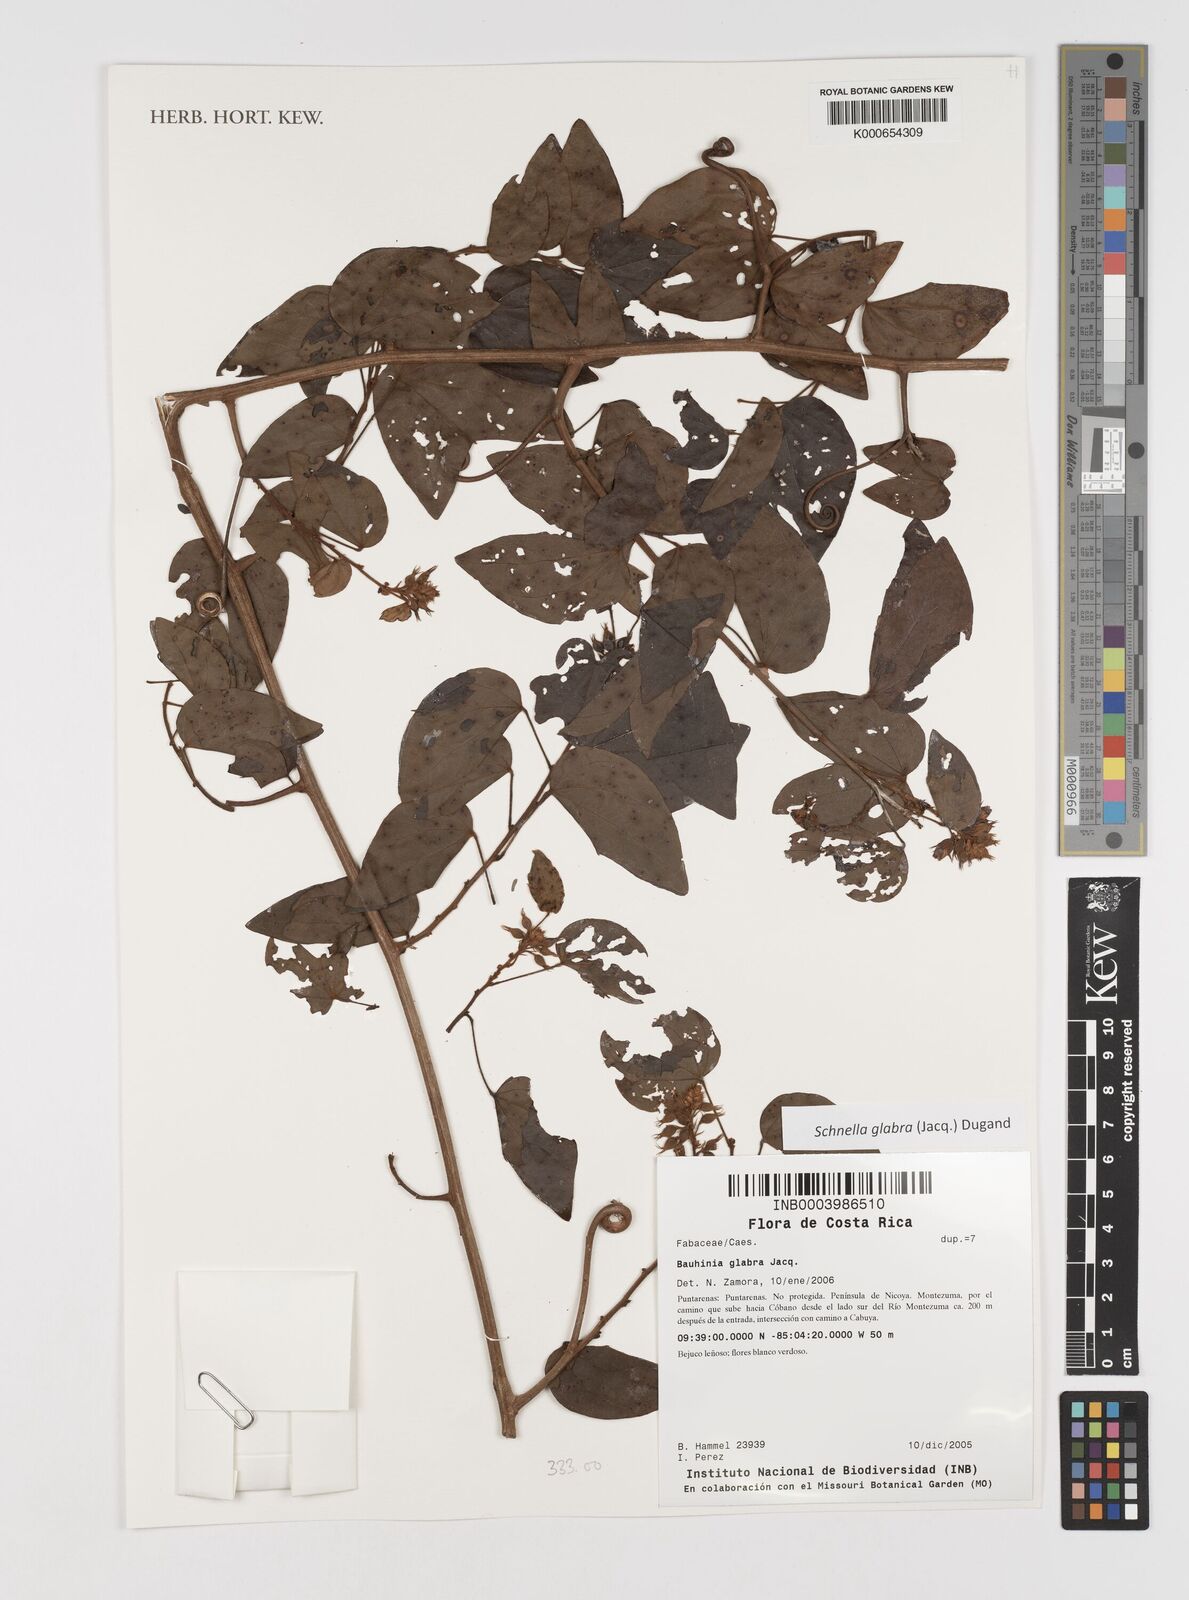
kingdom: Plantae
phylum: Tracheophyta
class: Magnoliopsida
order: Fabales
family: Fabaceae
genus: Schnella
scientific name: Schnella glabra
